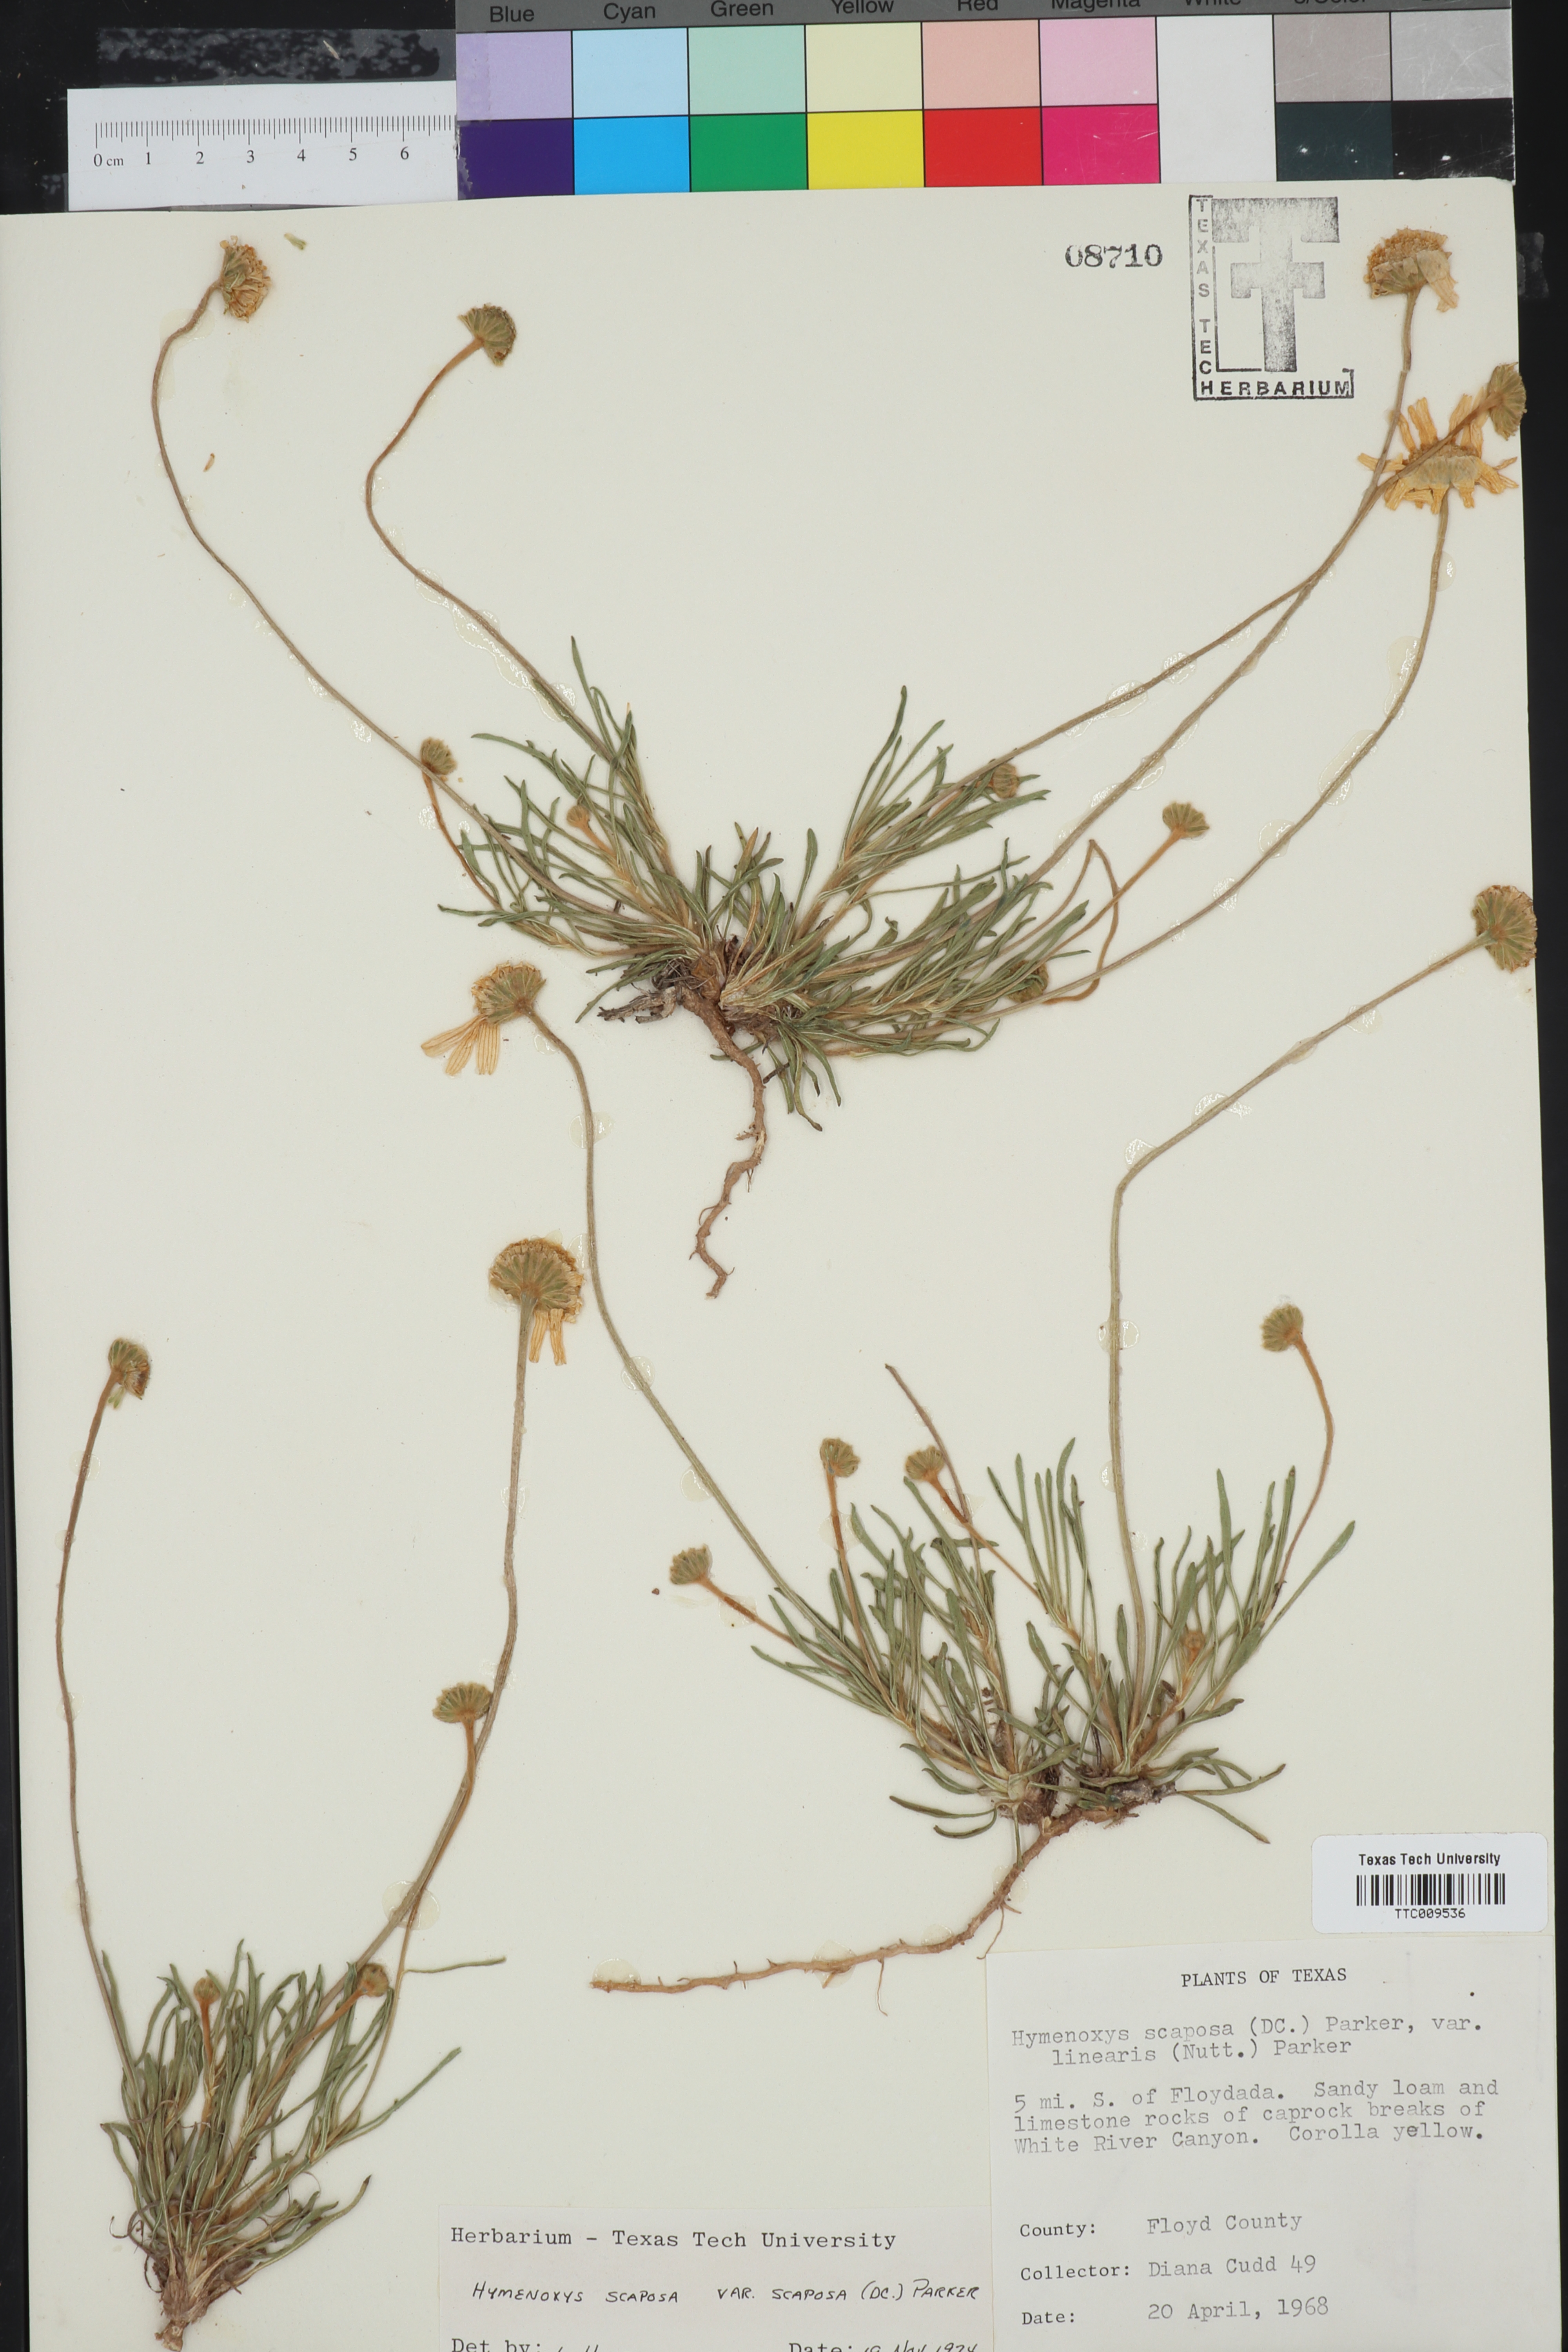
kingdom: Plantae
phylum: Tracheophyta
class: Magnoliopsida
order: Asterales
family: Asteraceae
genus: Tetraneuris
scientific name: Tetraneuris scaposa
